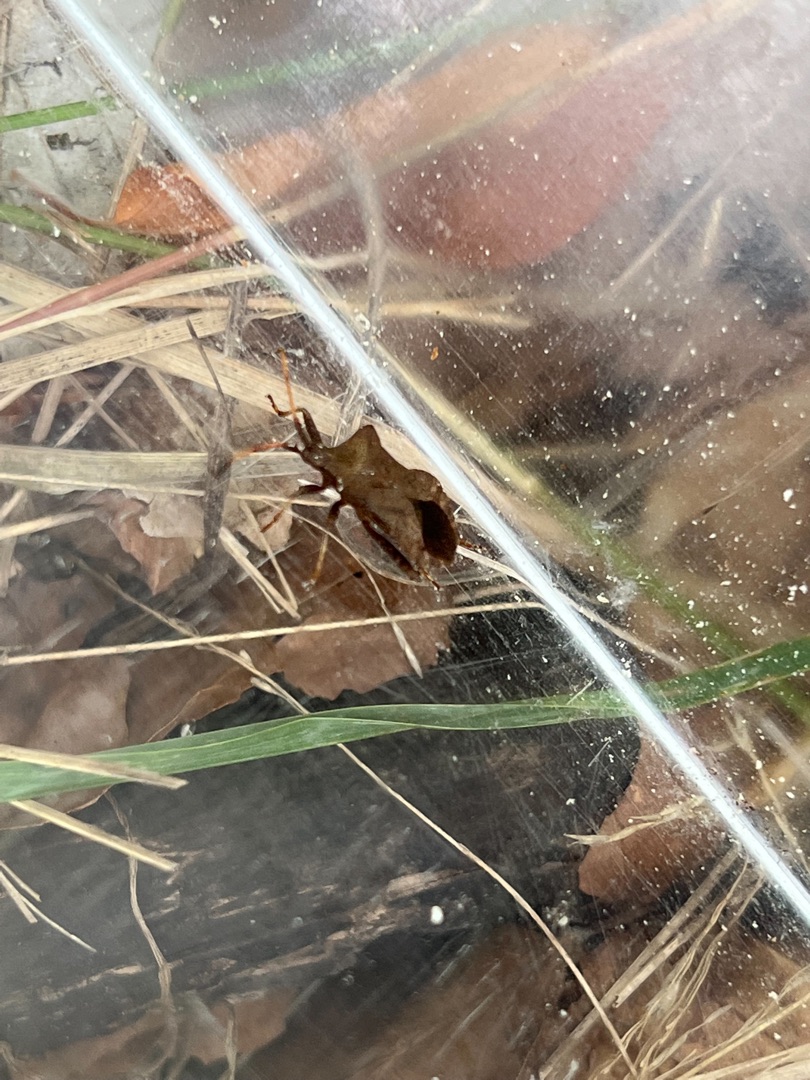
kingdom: Animalia
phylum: Arthropoda
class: Insecta
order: Hemiptera
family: Coreidae
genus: Coreus
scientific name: Coreus marginatus
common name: Skræppetæge
